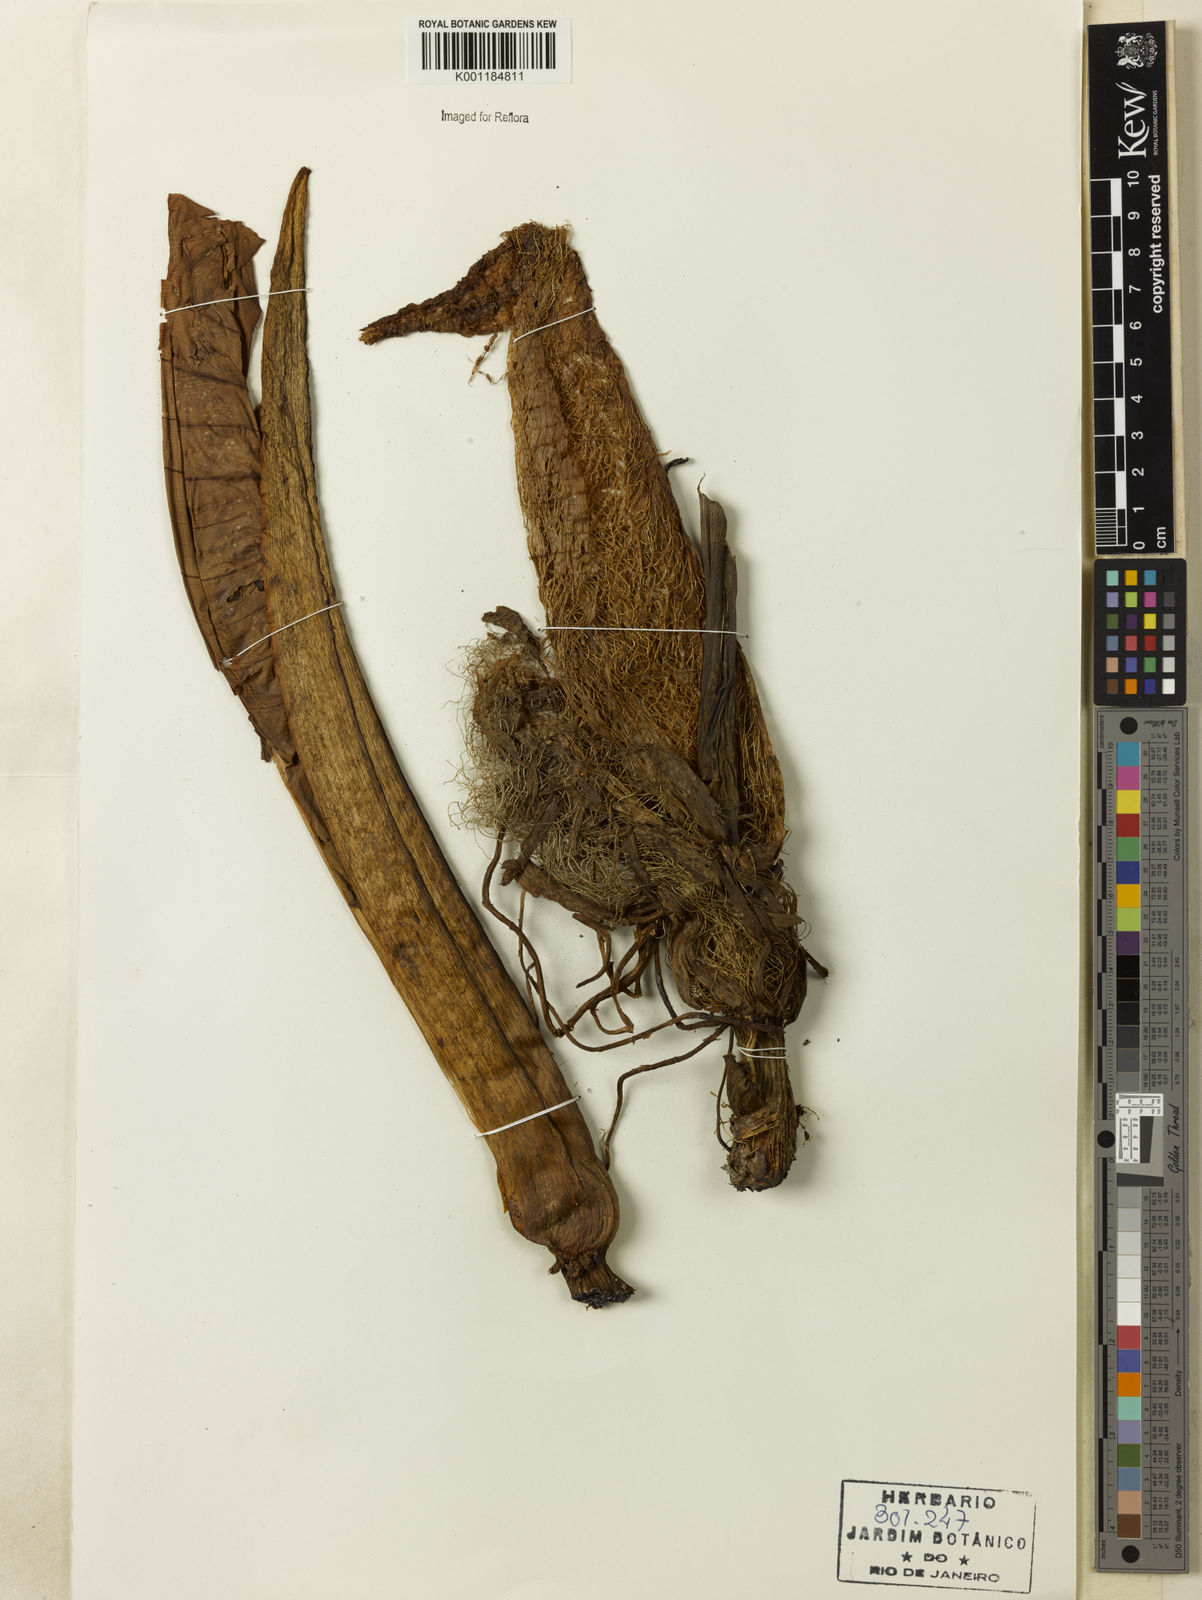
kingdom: Plantae
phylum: Tracheophyta
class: Liliopsida
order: Alismatales
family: Araceae
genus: Philodendron
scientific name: Philodendron ornatum
